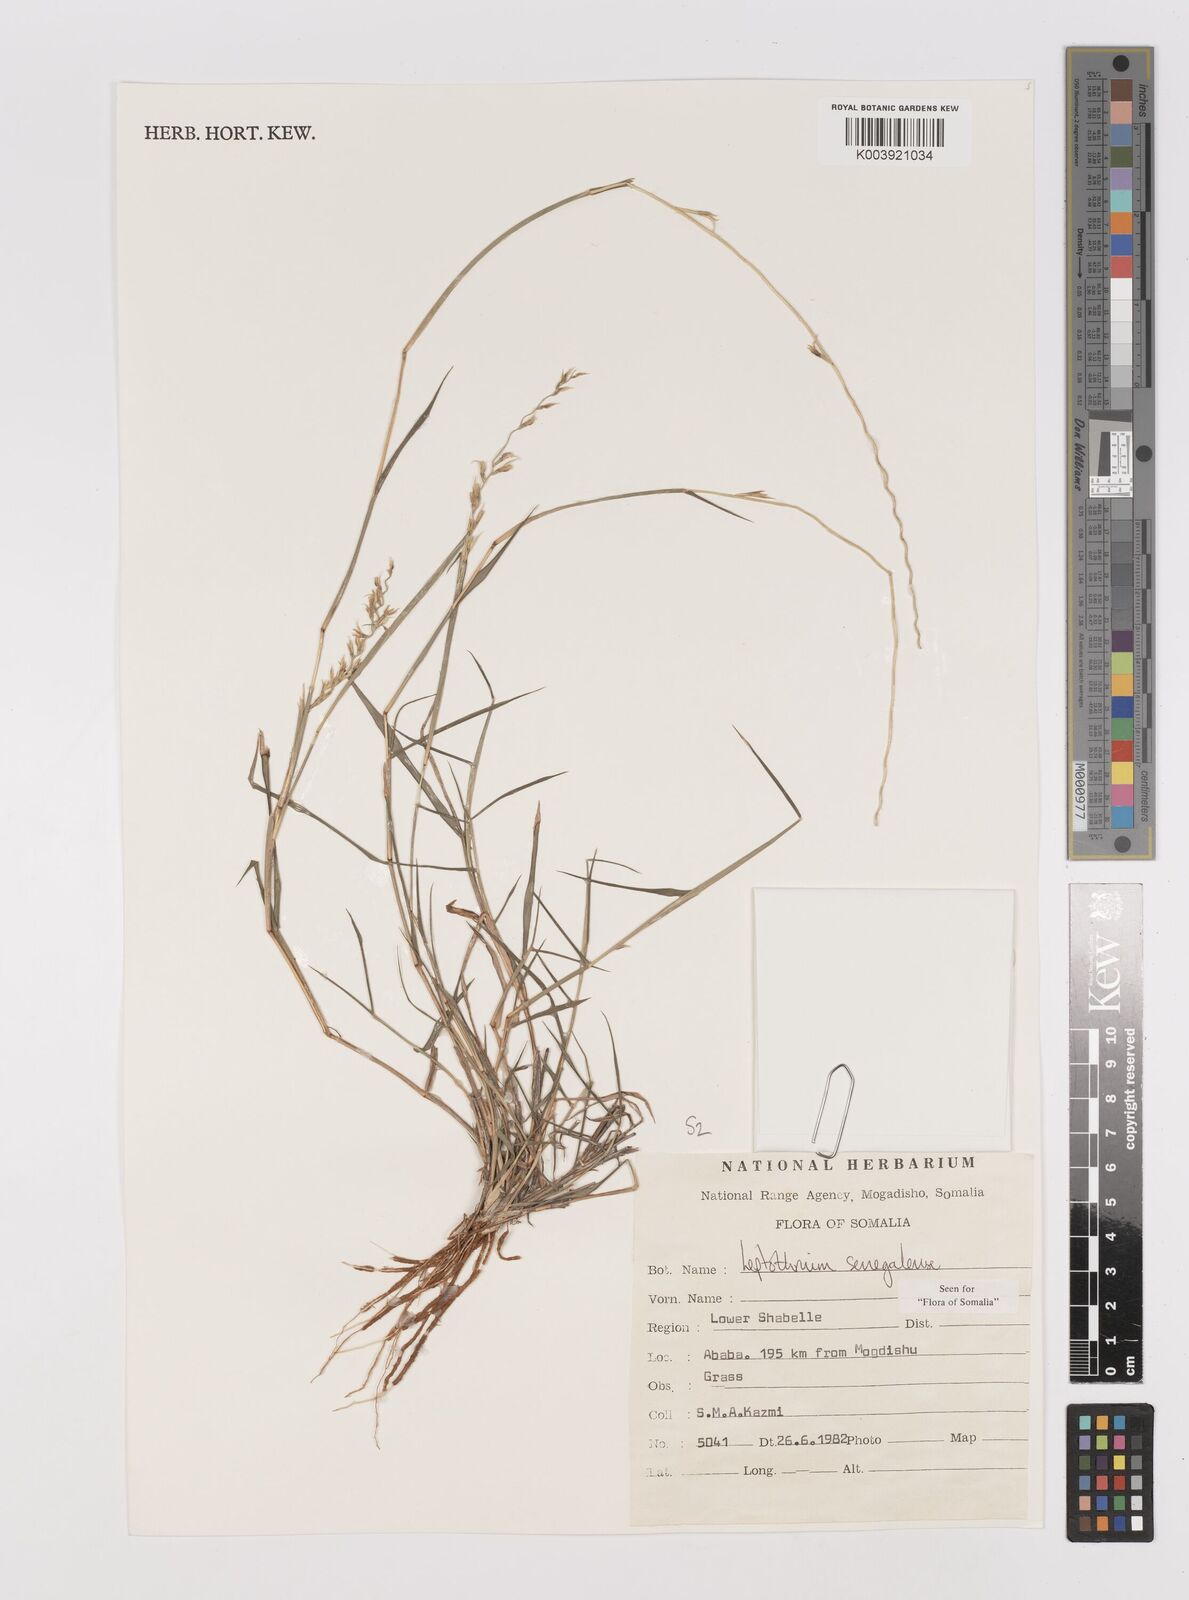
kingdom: Plantae
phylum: Tracheophyta
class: Liliopsida
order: Poales
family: Poaceae
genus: Leptothrium
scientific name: Leptothrium senegalense
